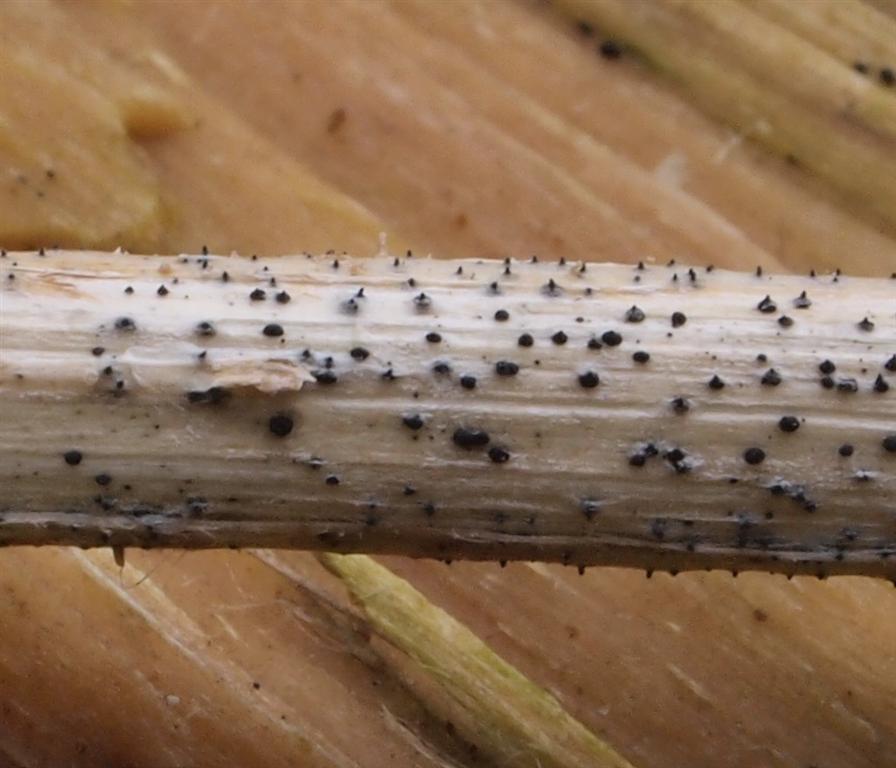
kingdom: Fungi
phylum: Ascomycota
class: Sordariomycetes
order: Xylariales
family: Diatrypaceae
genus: Diatrype
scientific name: Diatrype disciformis
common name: kant-kulskorpe
